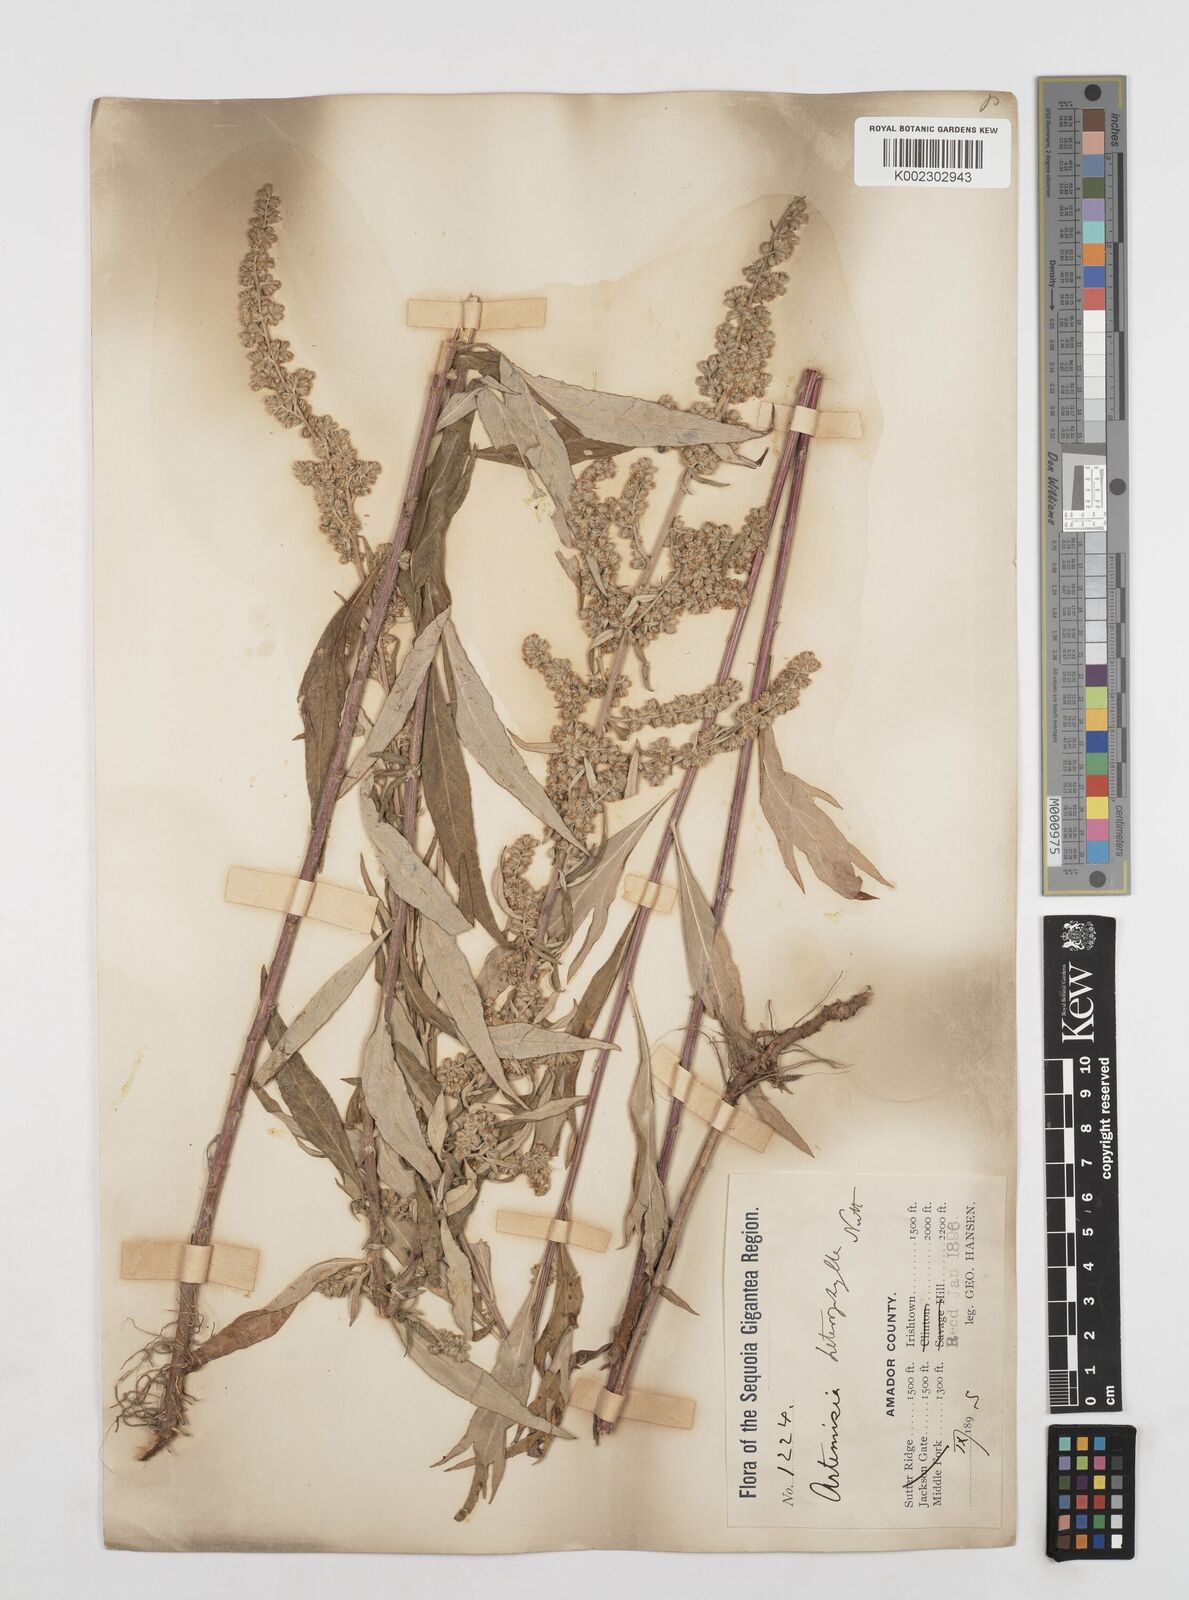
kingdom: Plantae
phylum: Tracheophyta
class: Magnoliopsida
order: Asterales
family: Asteraceae
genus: Artemisia
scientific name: Artemisia douglasiana
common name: Northwest mugwort
